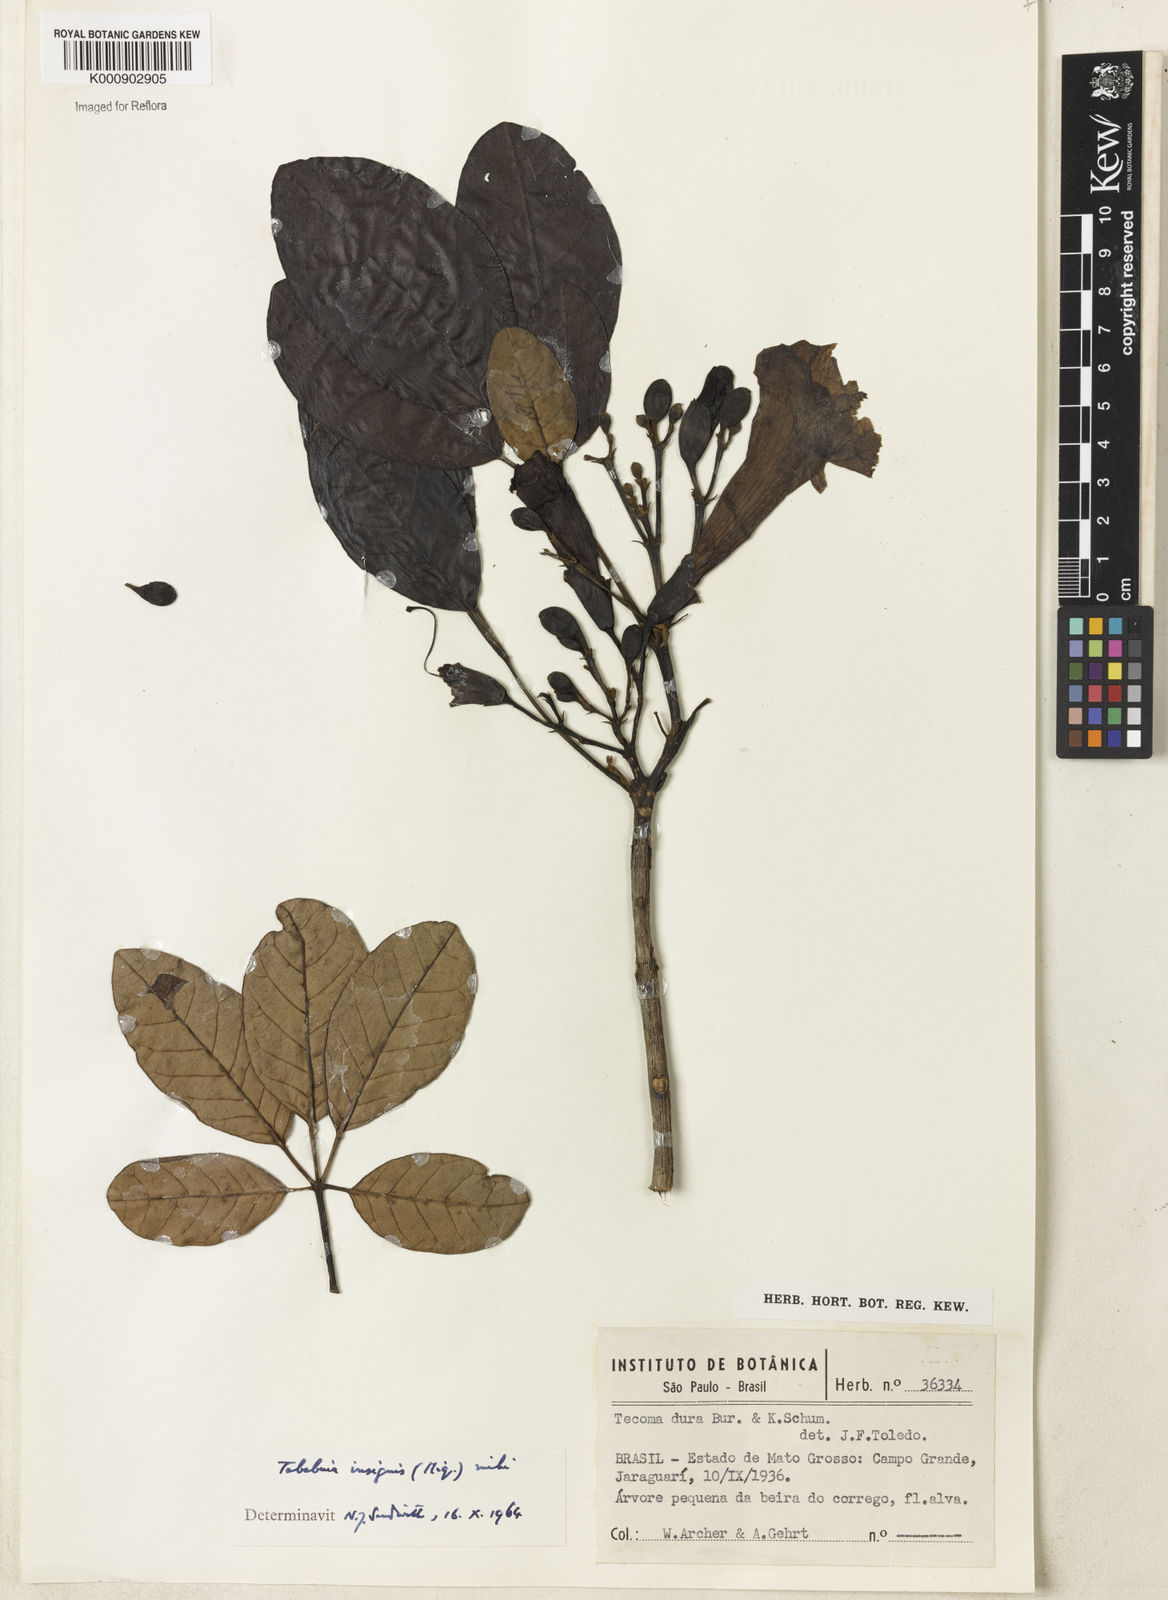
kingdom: Plantae
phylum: Tracheophyta
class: Magnoliopsida
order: Lamiales
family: Bignoniaceae
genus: Tabebuia
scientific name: Tabebuia
